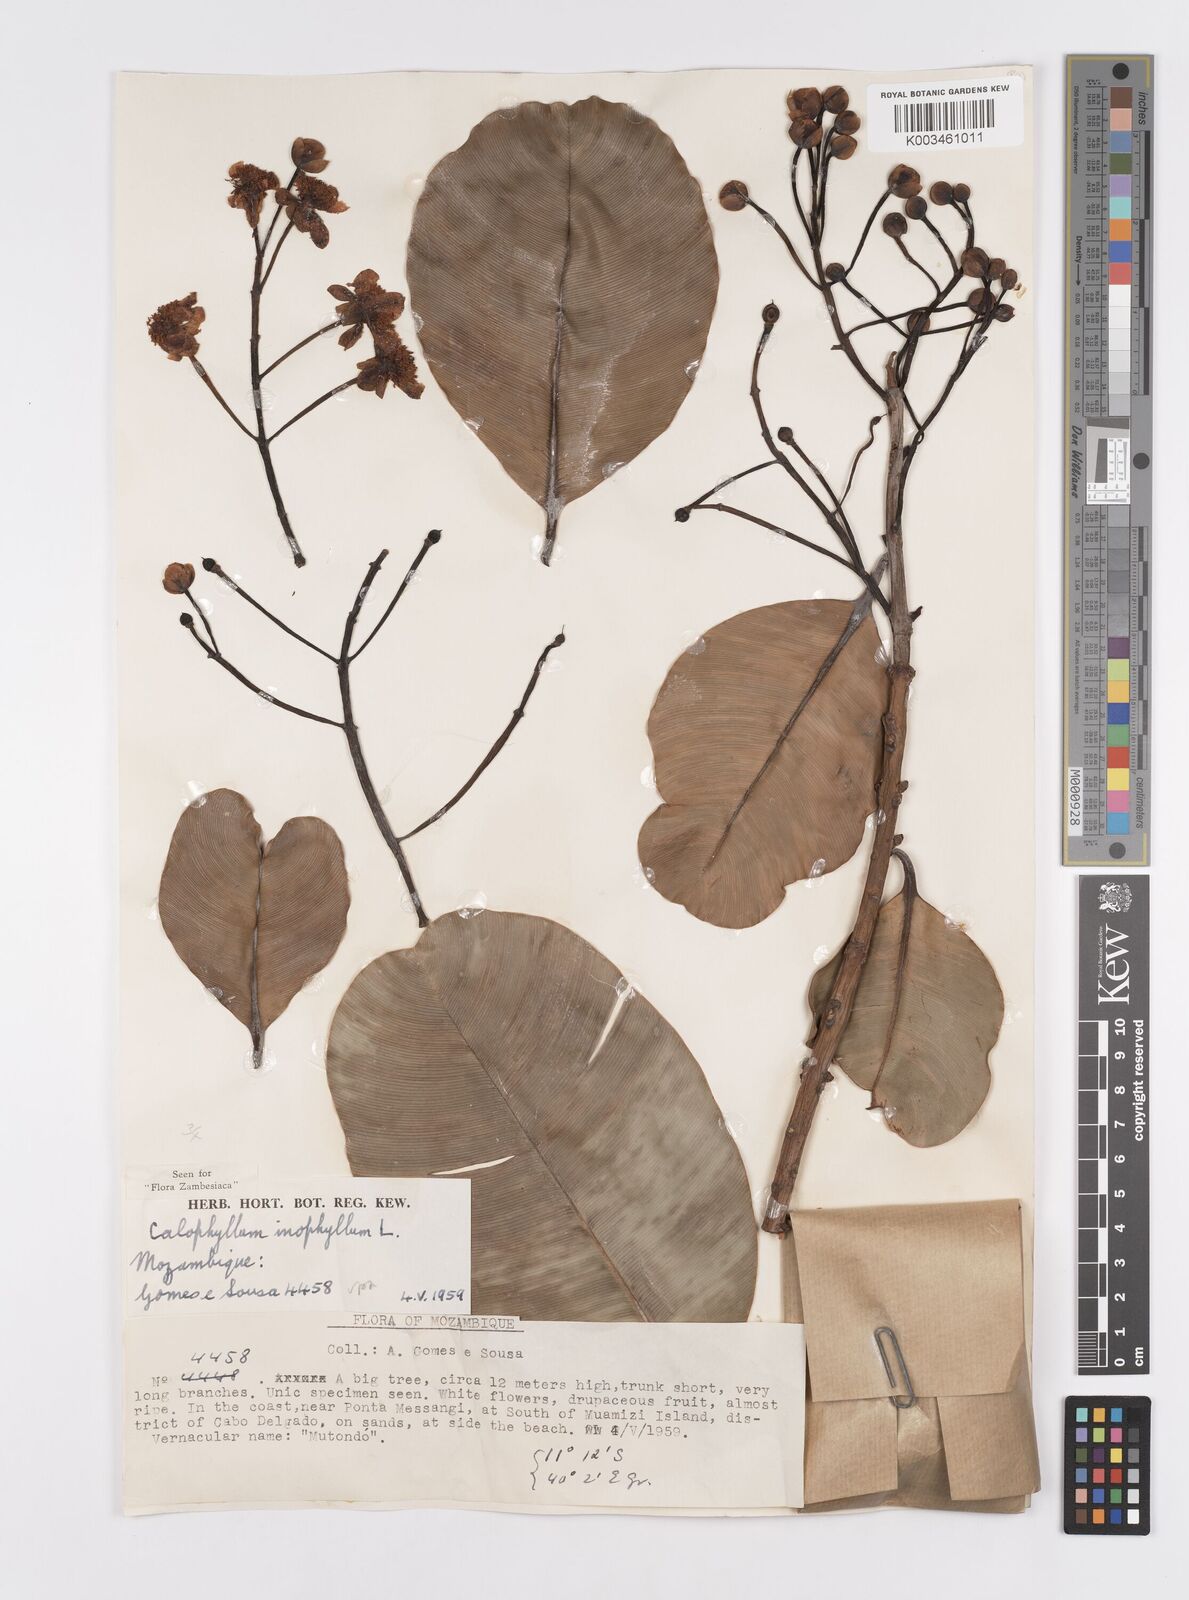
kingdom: Plantae
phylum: Tracheophyta
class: Magnoliopsida
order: Malpighiales
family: Calophyllaceae
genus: Calophyllum
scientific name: Calophyllum inophyllum
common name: Alexandrian laurel
